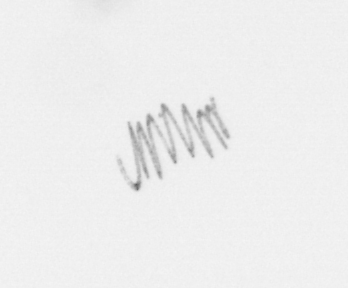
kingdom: Chromista
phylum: Ochrophyta
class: Bacillariophyceae
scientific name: Bacillariophyceae
